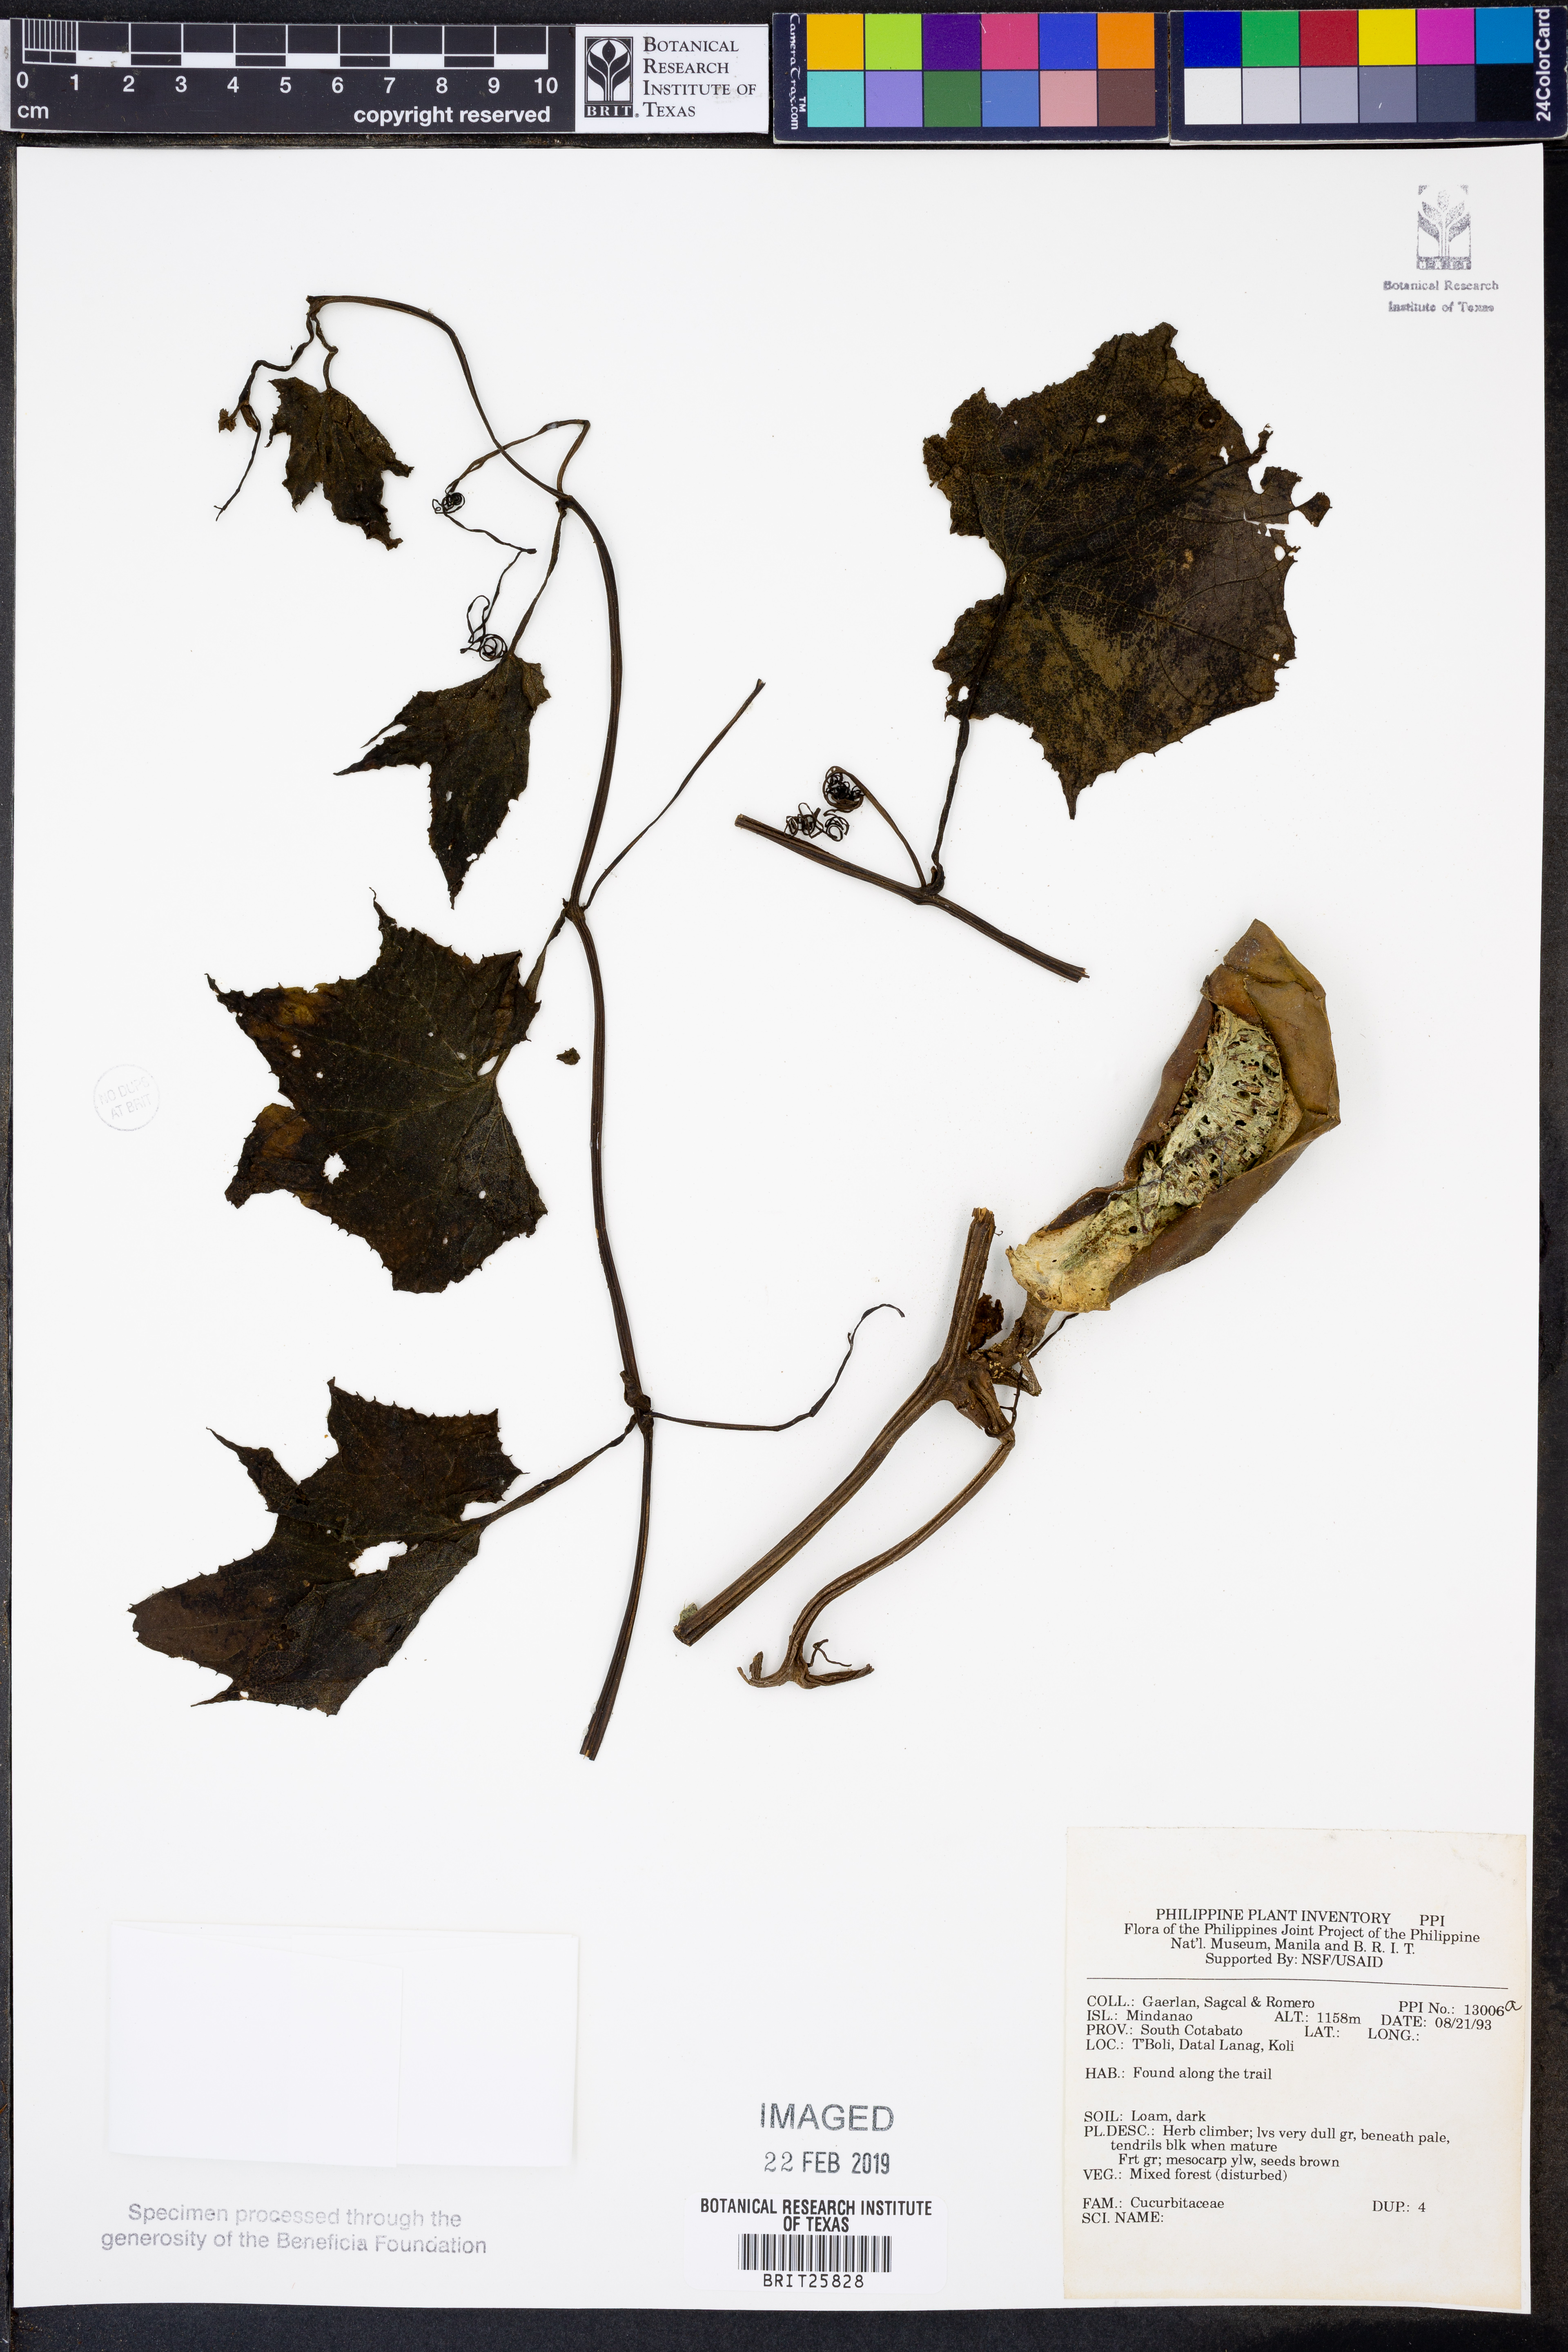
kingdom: Plantae
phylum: Tracheophyta
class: Magnoliopsida
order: Cucurbitales
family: Cucurbitaceae
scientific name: Cucurbitaceae
